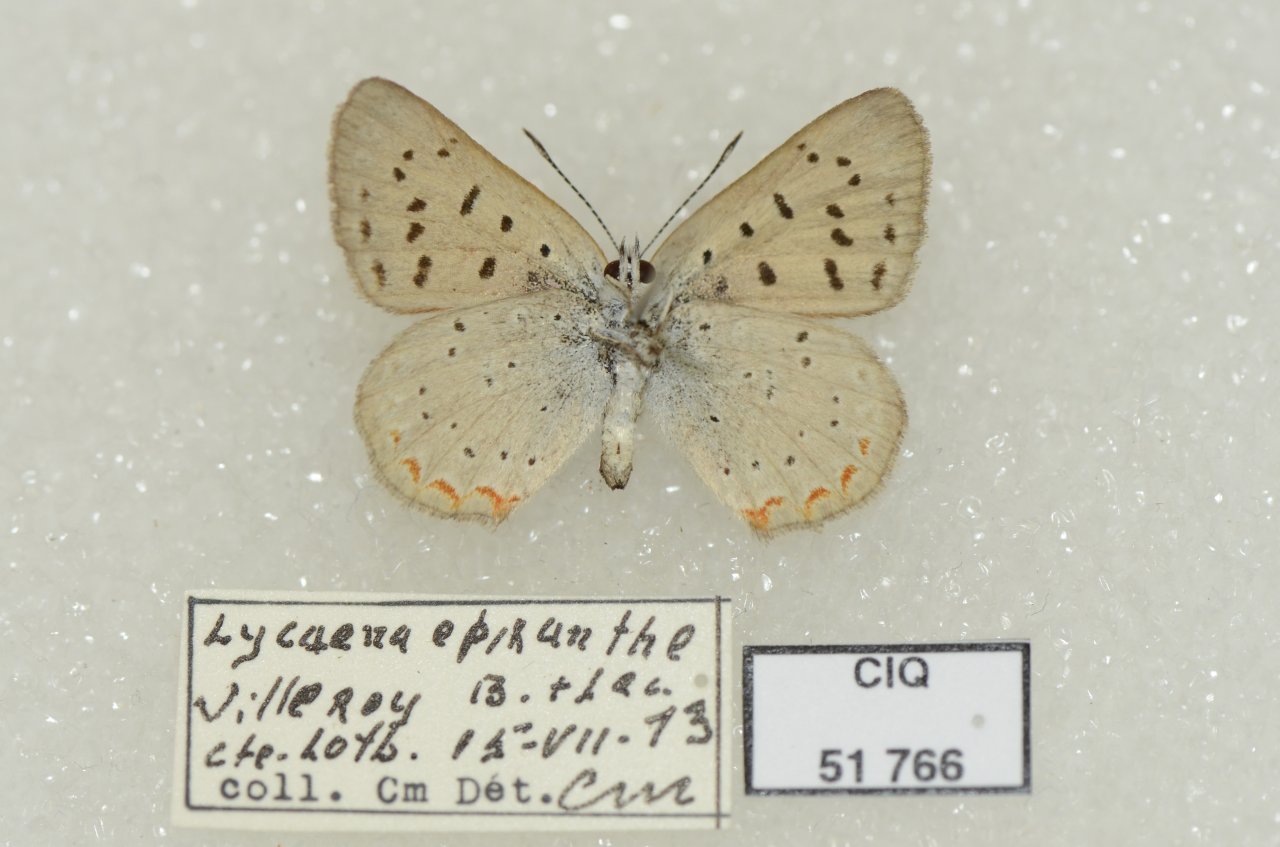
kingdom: Animalia
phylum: Arthropoda
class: Insecta
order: Lepidoptera
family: Sesiidae
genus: Sesia
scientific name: Sesia Lycaena epixanthe
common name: Bog Copper
